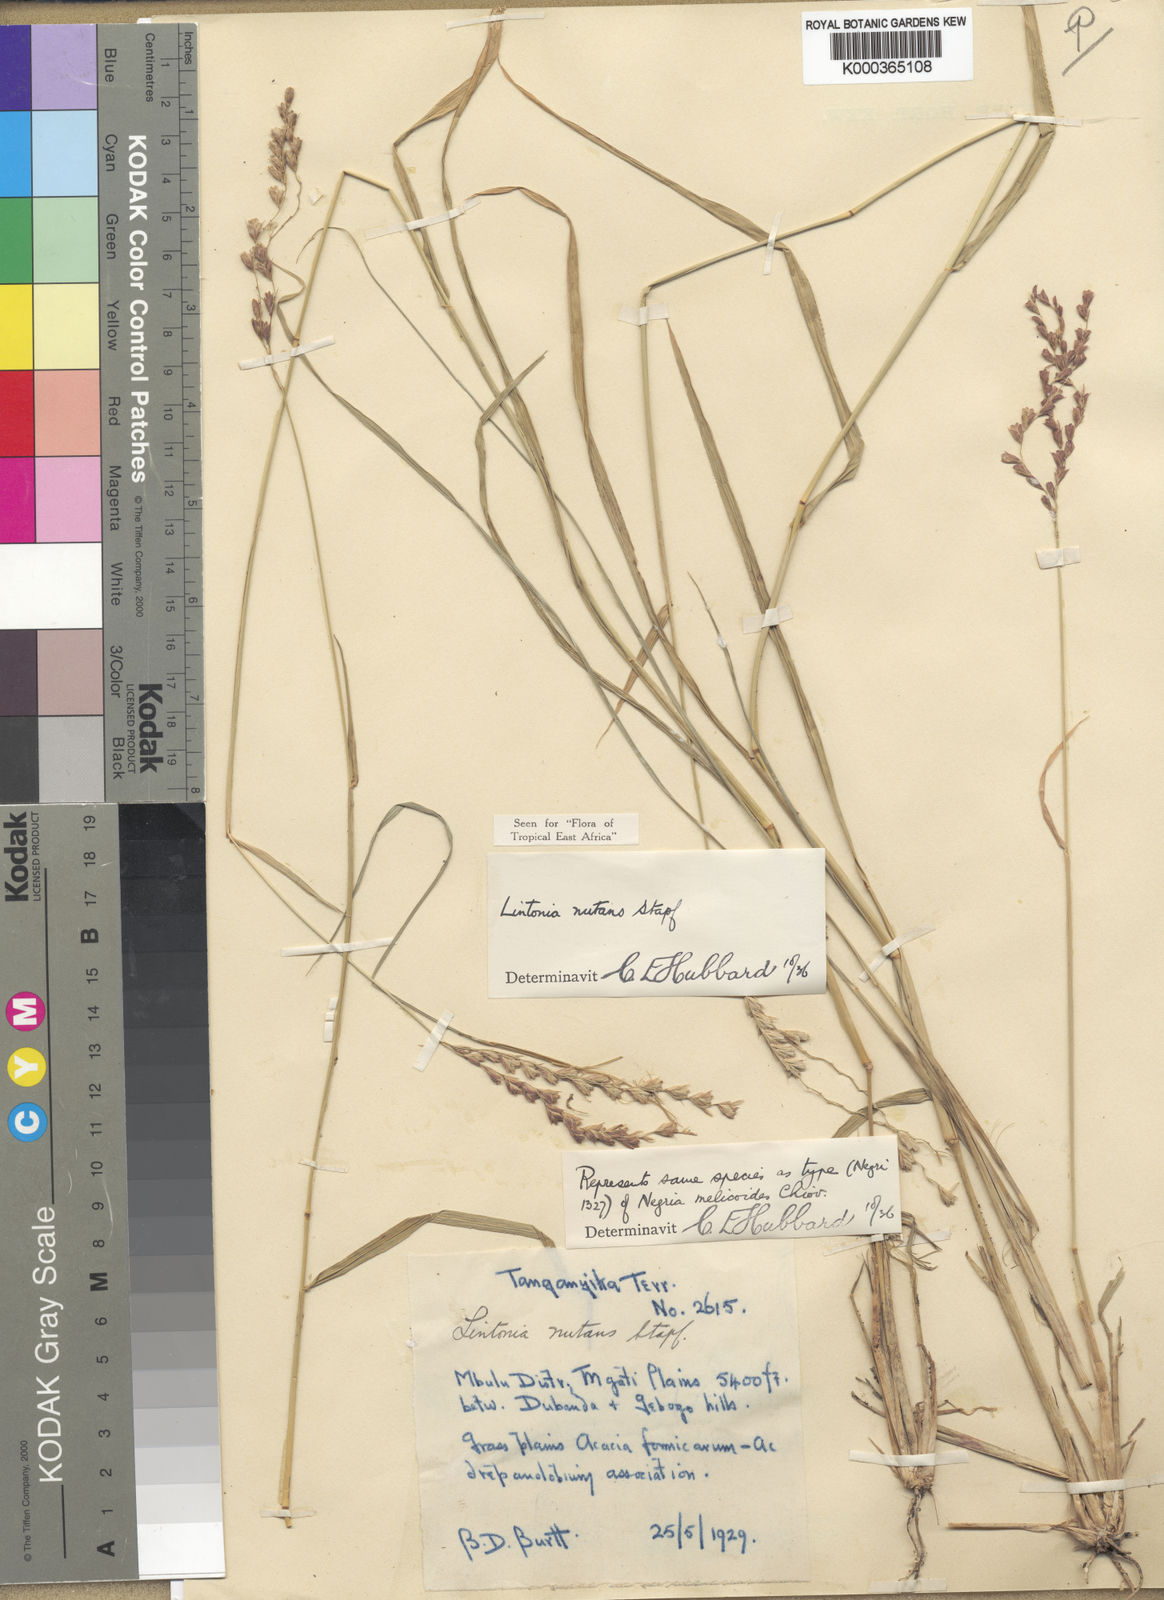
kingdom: Plantae
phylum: Tracheophyta
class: Liliopsida
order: Poales
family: Poaceae
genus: Chloris
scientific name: Chloris nutans
